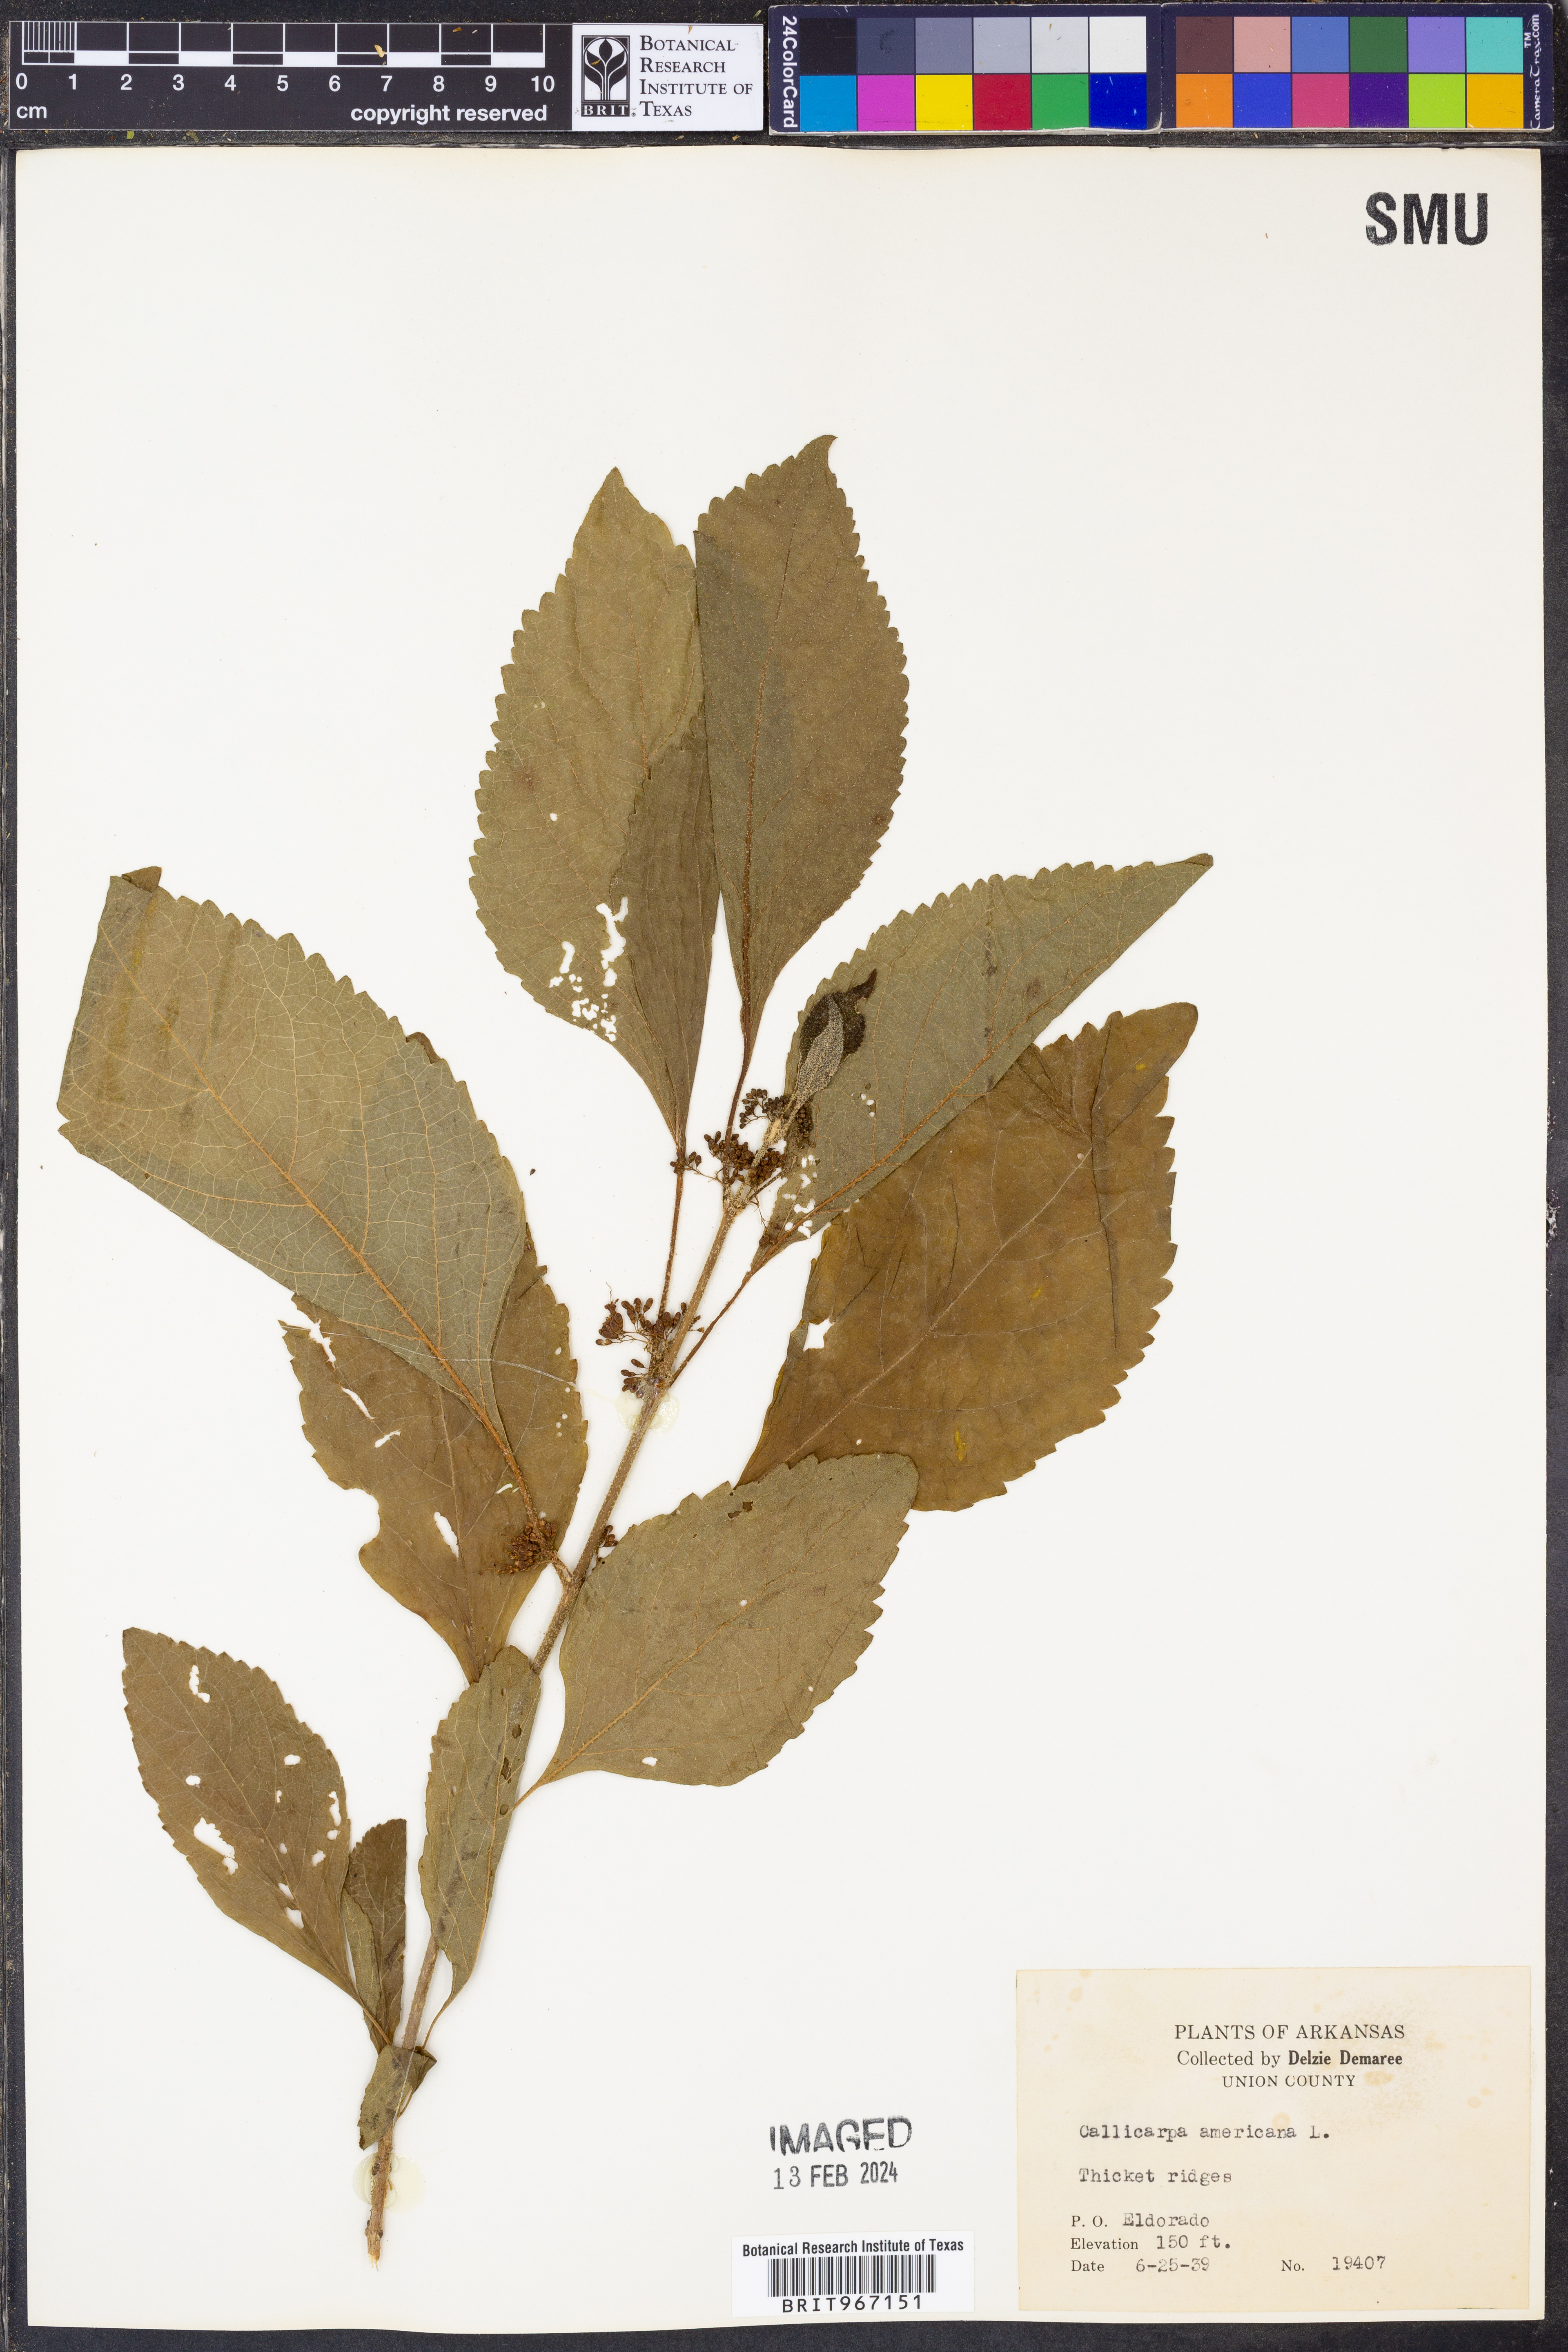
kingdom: Plantae
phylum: Tracheophyta
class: Magnoliopsida
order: Lamiales
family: Lamiaceae
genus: Callicarpa
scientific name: Callicarpa americana
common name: American beautyberry
